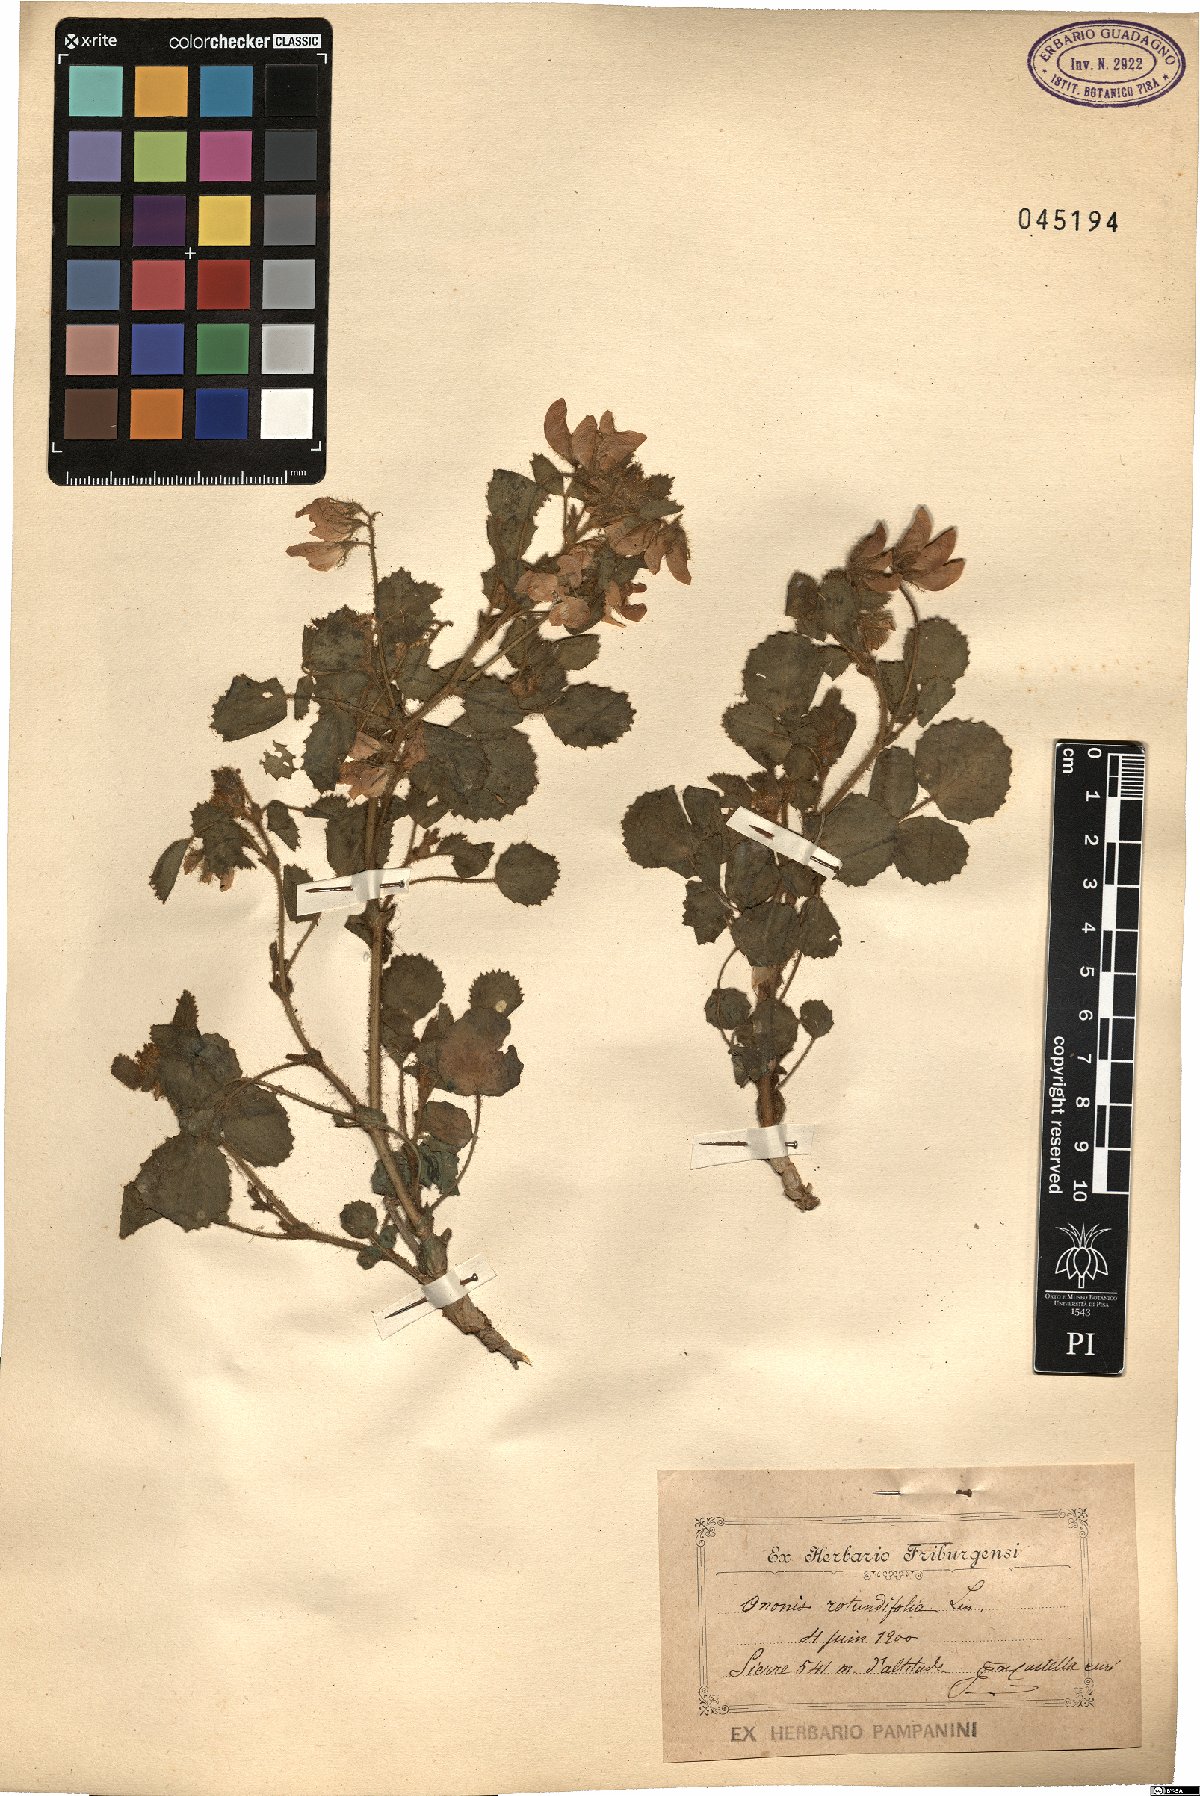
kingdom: Plantae
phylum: Tracheophyta
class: Magnoliopsida
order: Fabales
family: Fabaceae
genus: Ononis
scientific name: Ononis rotundifolia
